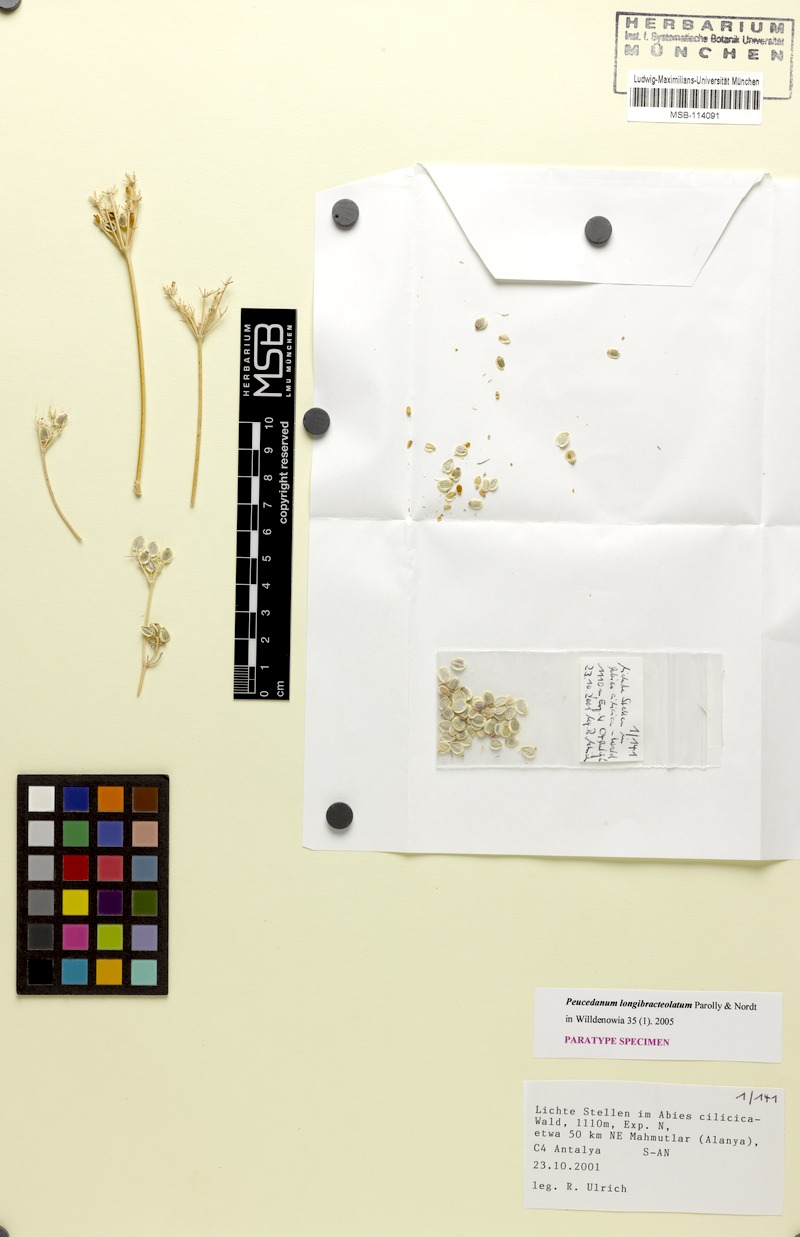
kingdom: Plantae
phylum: Tracheophyta
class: Magnoliopsida
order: Apiales
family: Apiaceae
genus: Dichoropetalum
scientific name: Dichoropetalum longibracteolatum
